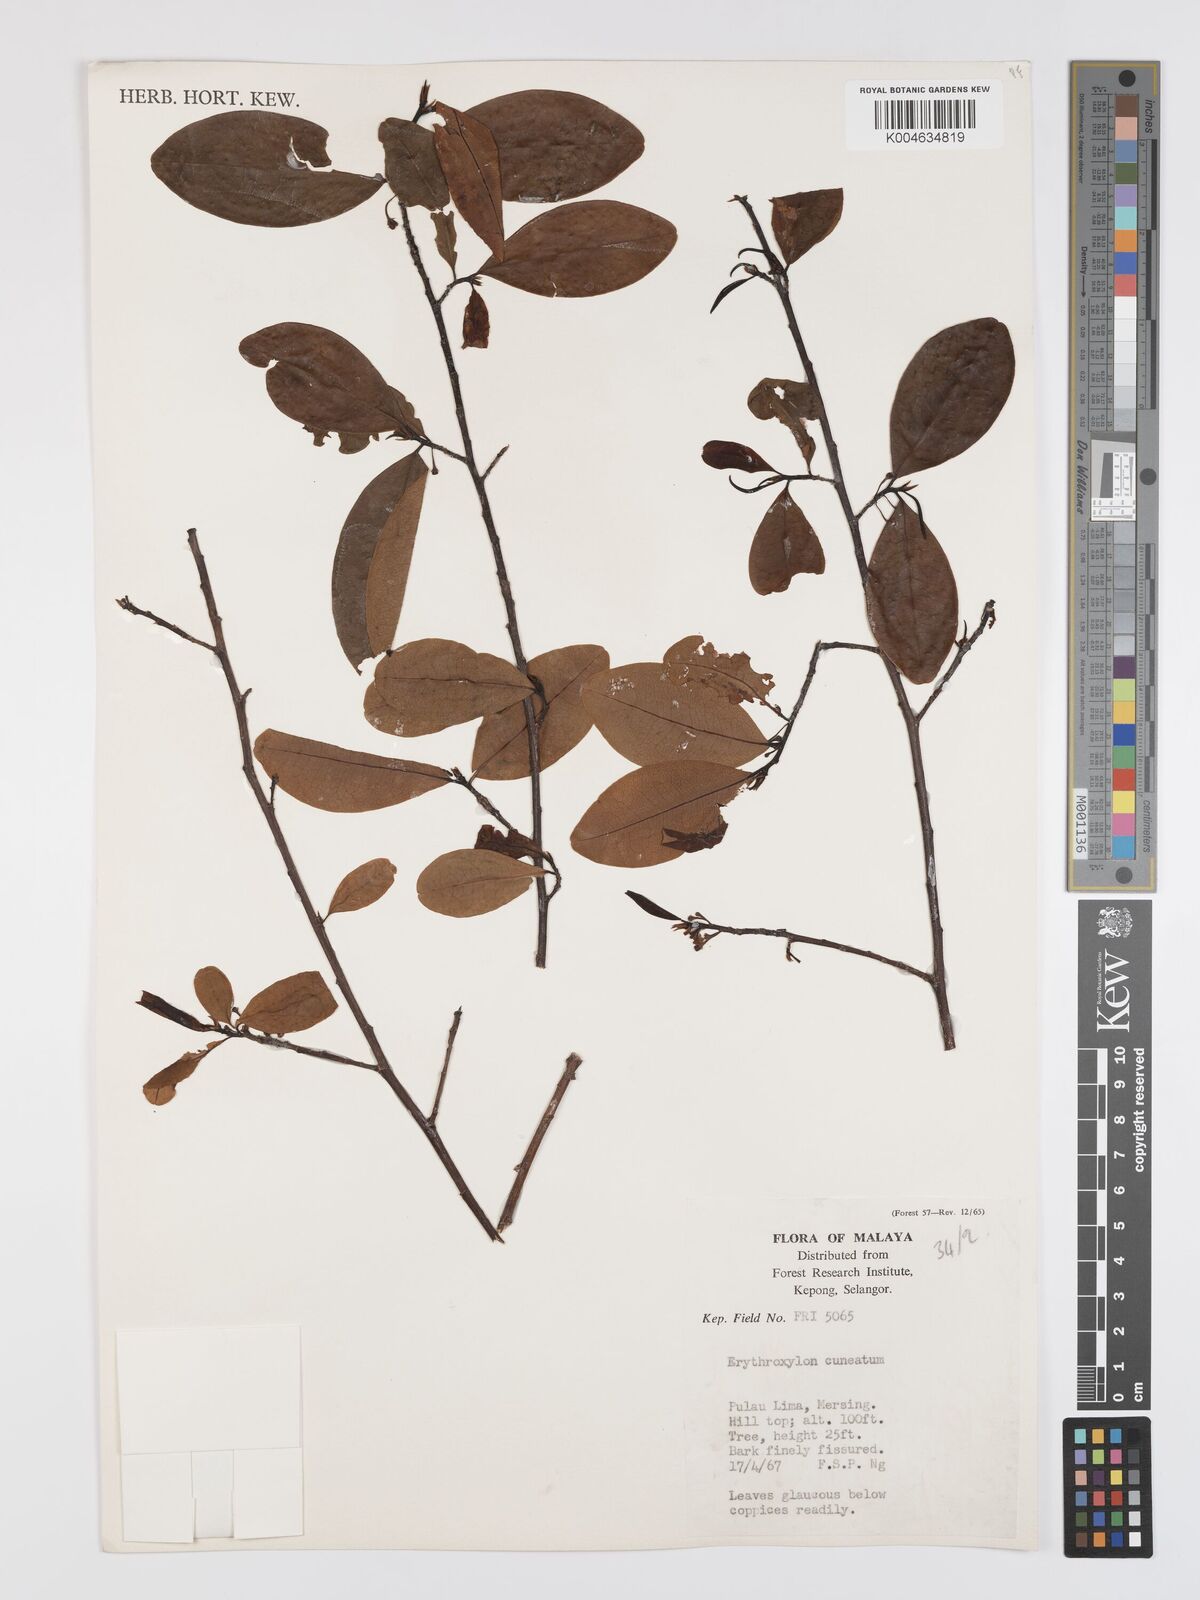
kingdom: Plantae
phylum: Tracheophyta
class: Magnoliopsida
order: Malpighiales
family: Erythroxylaceae
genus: Erythroxylum
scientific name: Erythroxylum cuneatum
